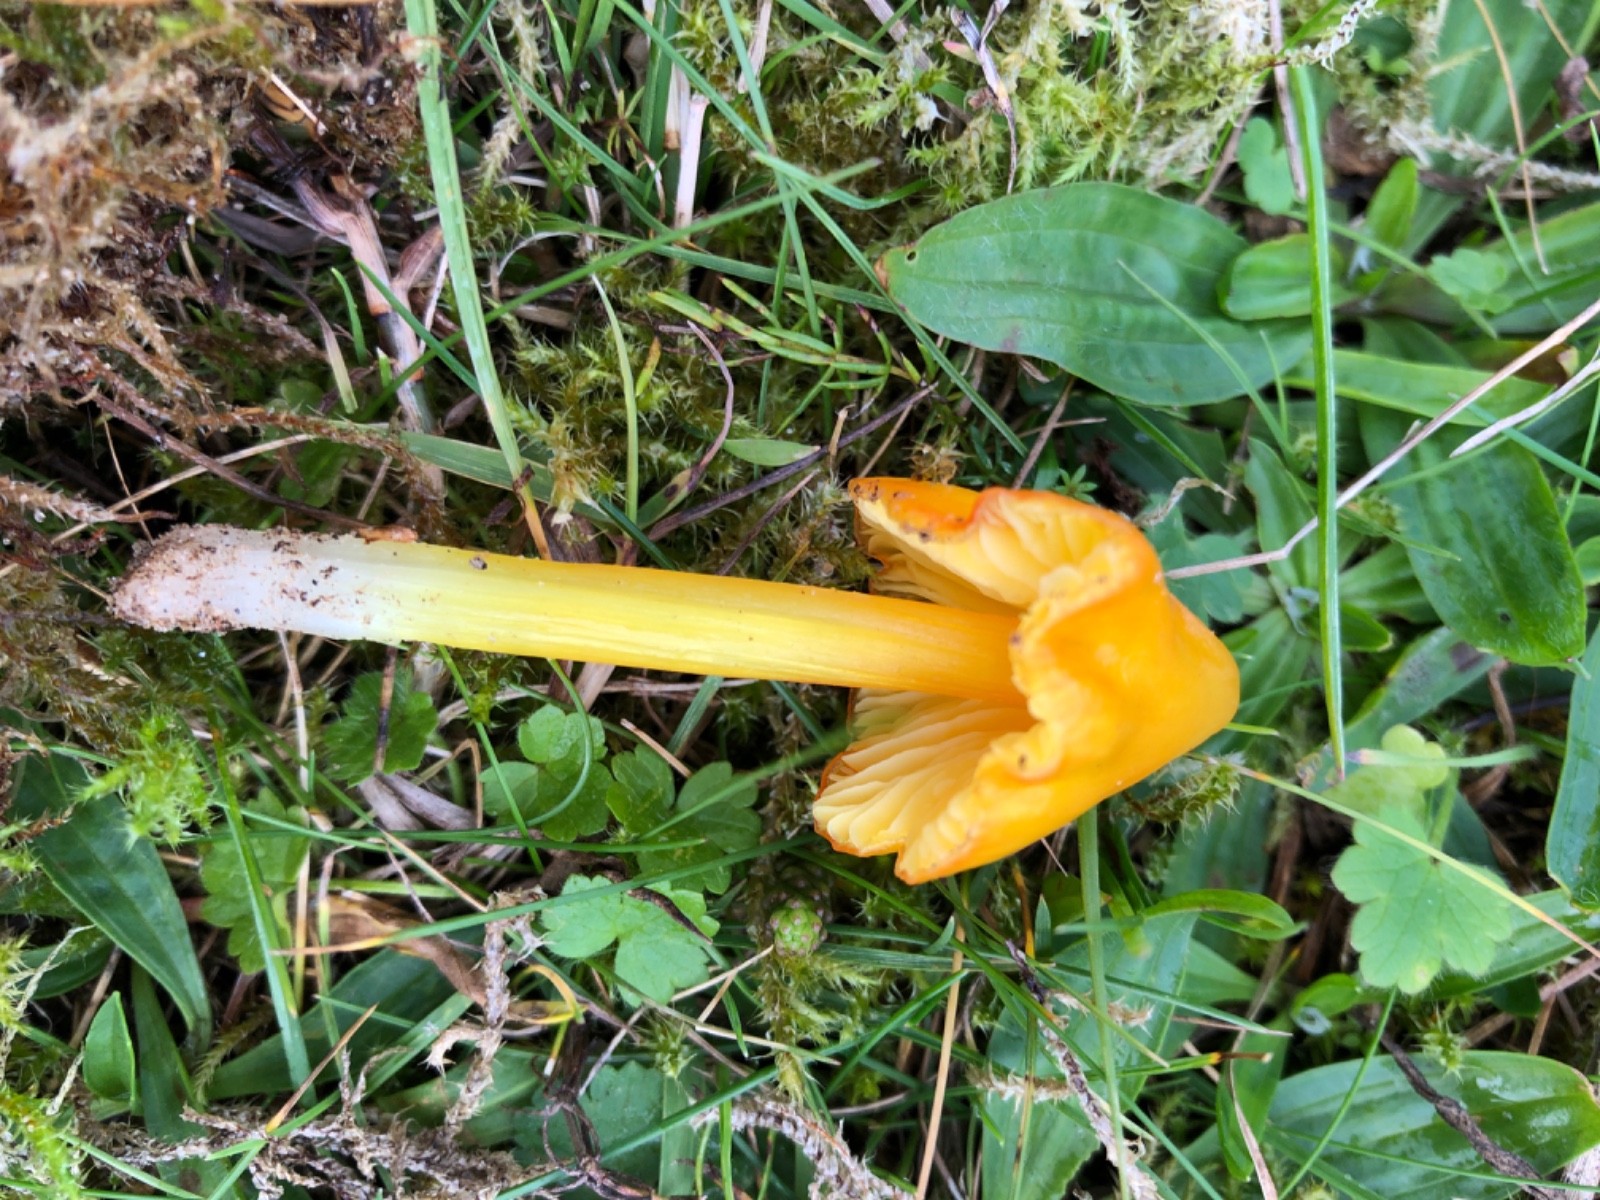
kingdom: Fungi
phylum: Basidiomycota
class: Agaricomycetes
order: Agaricales
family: Hygrophoraceae
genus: Hygrocybe
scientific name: Hygrocybe acutoconica
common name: spidspuklet vokshat
